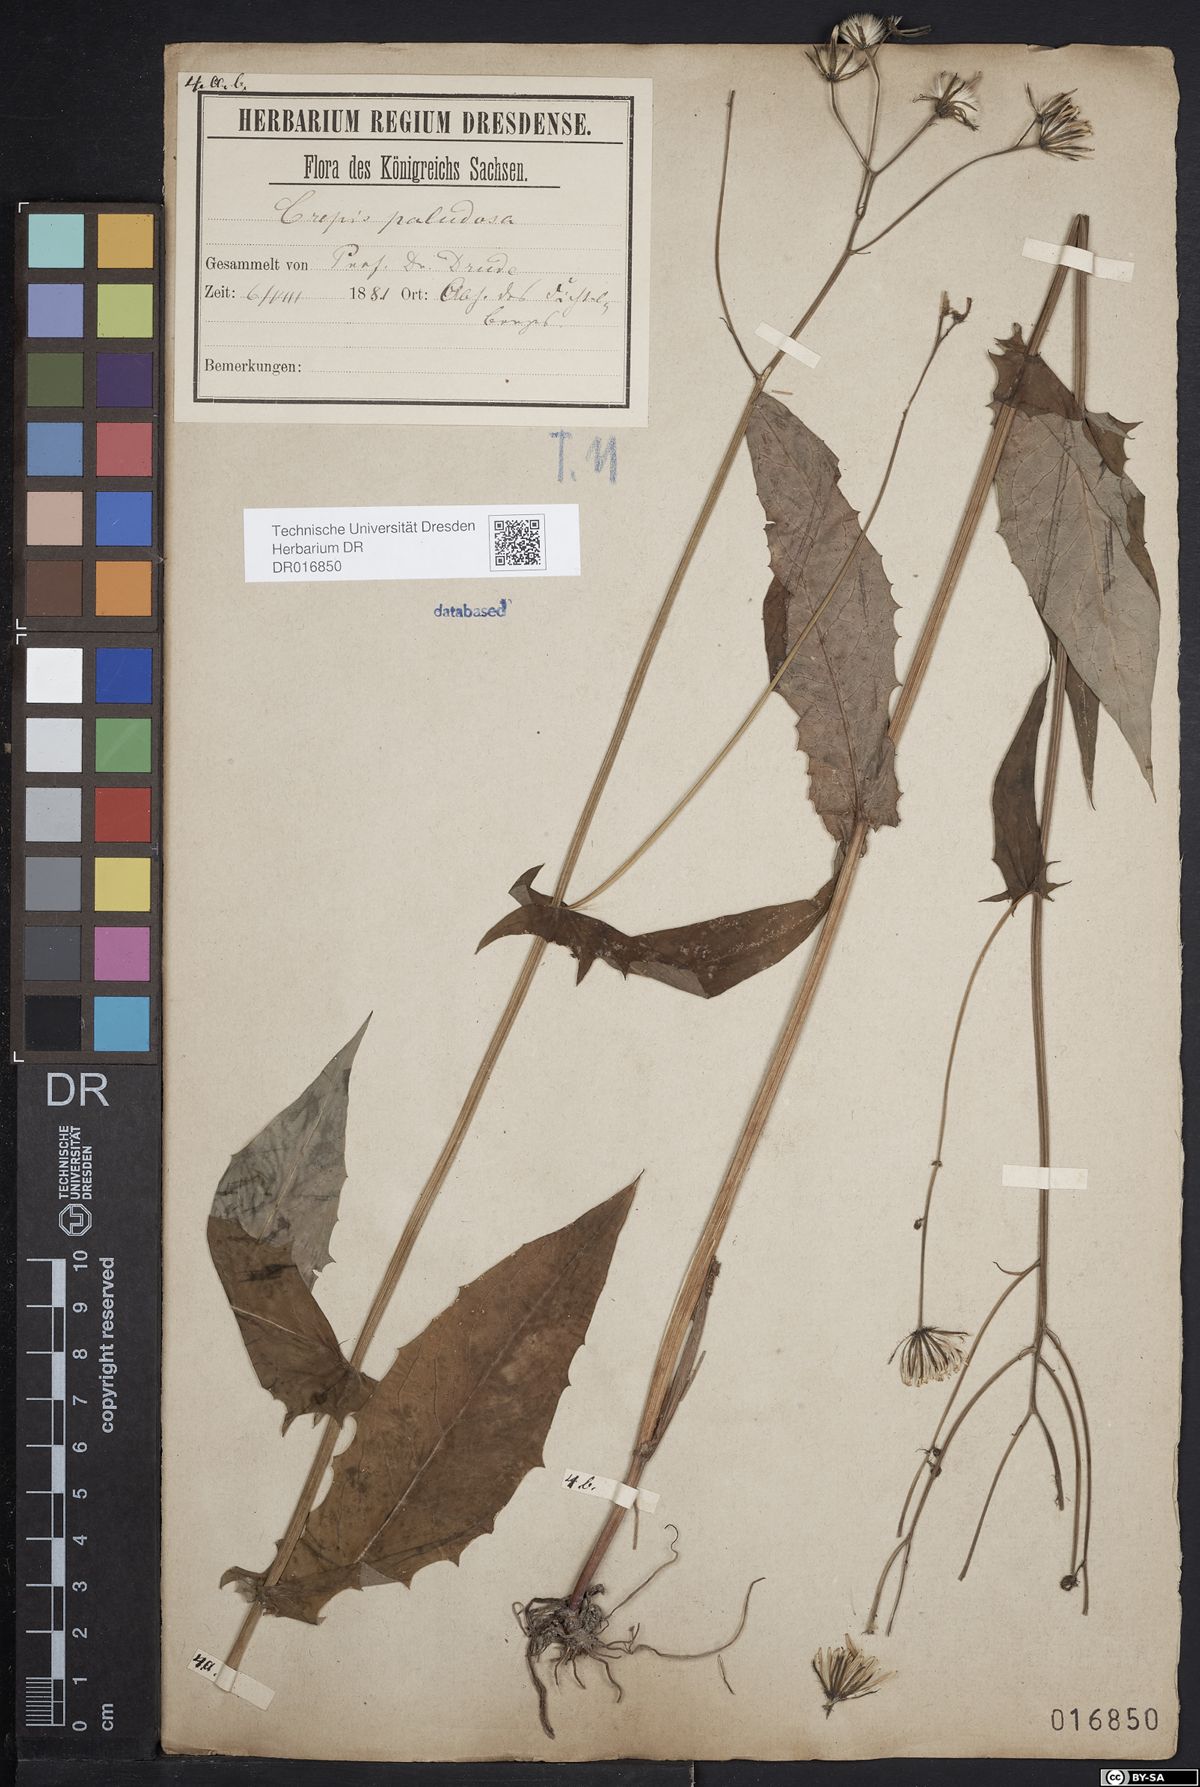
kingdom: Plantae
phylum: Tracheophyta
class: Magnoliopsida
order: Asterales
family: Asteraceae
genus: Crepis
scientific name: Crepis paludosa
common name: Marsh hawk's-beard
